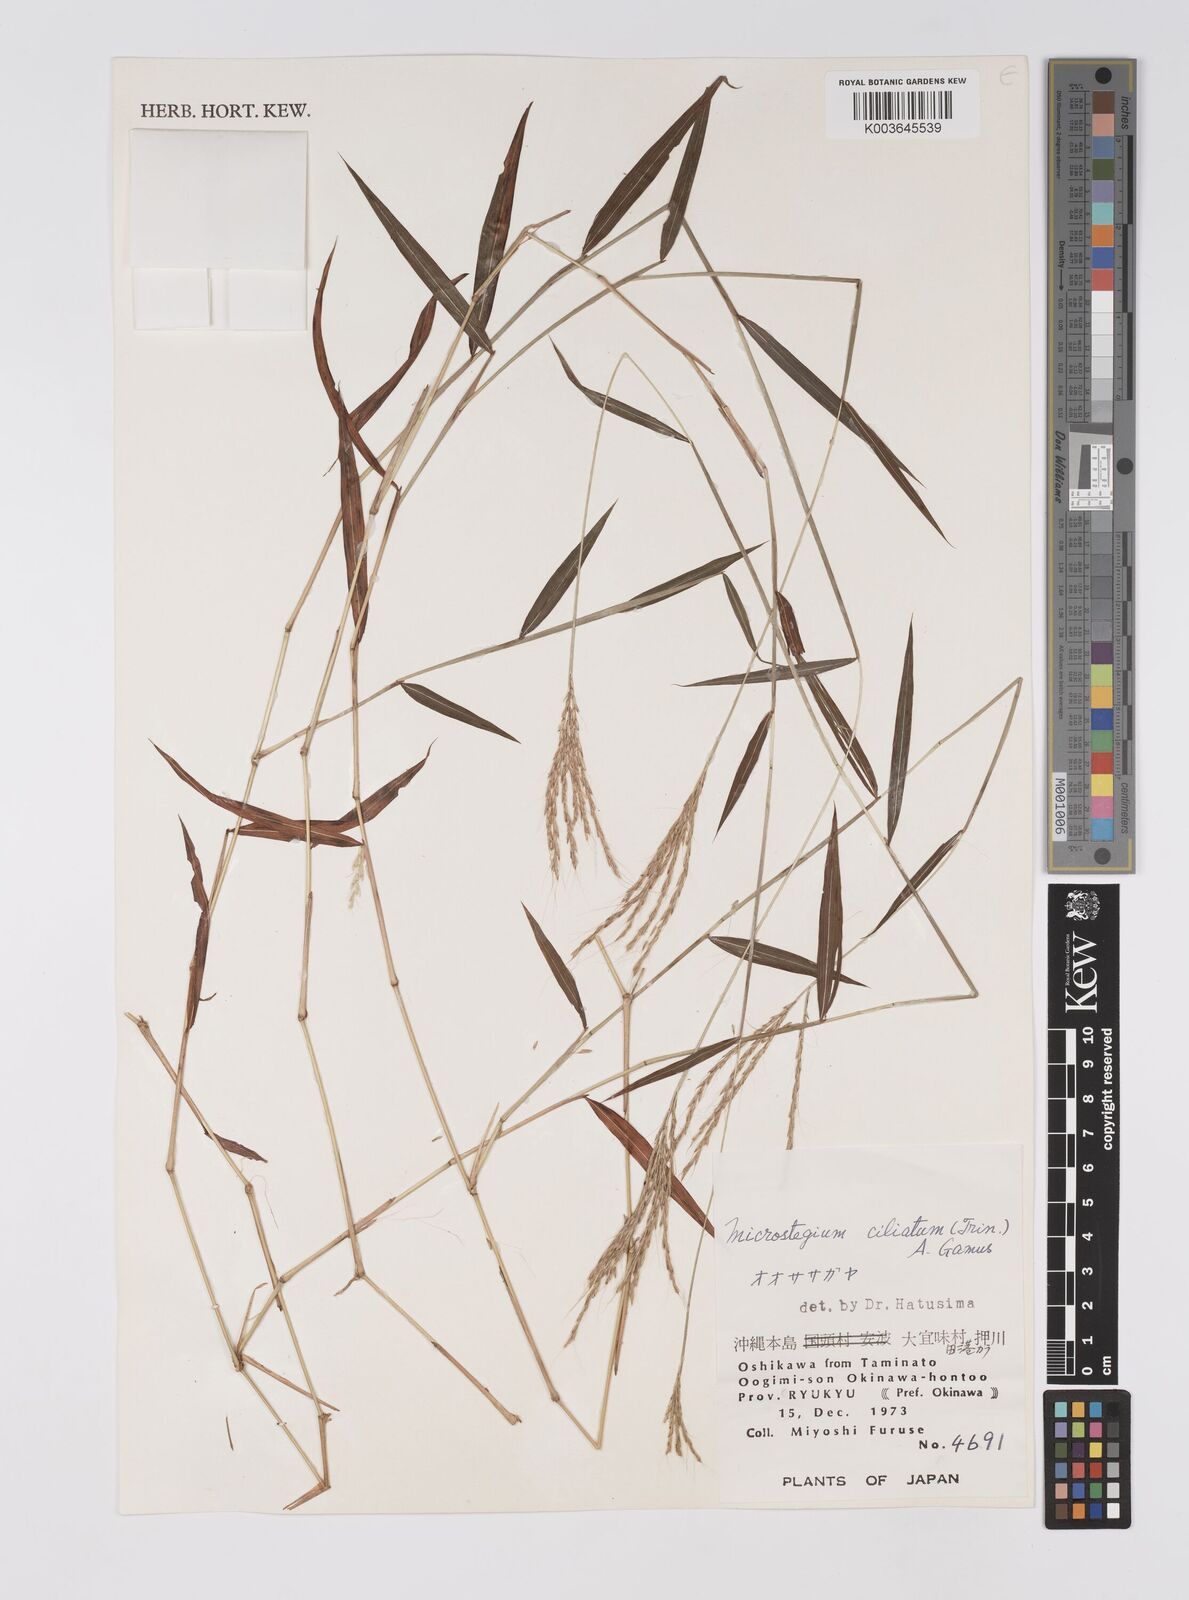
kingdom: Plantae
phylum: Tracheophyta
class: Liliopsida
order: Poales
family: Poaceae
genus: Microstegium
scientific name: Microstegium fasciculatum
